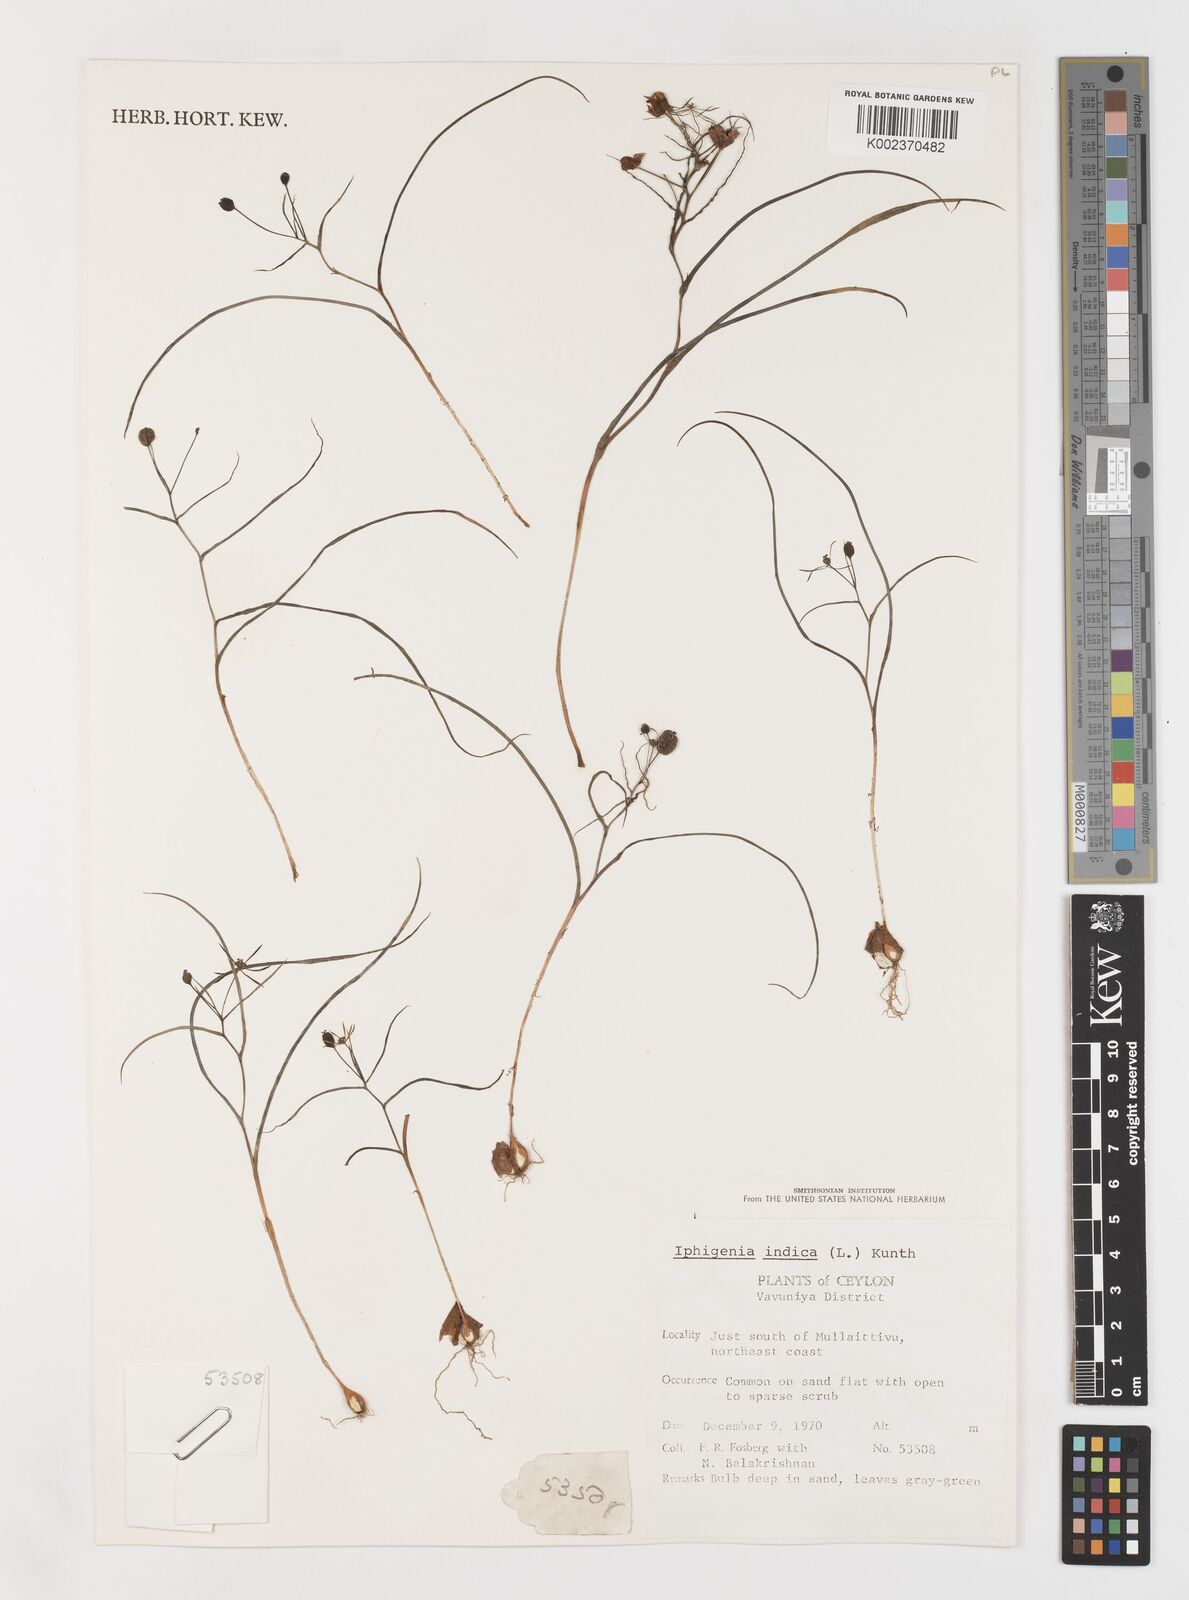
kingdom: Plantae
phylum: Tracheophyta
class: Liliopsida
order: Liliales
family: Colchicaceae
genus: Iphigenia
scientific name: Iphigenia indica
